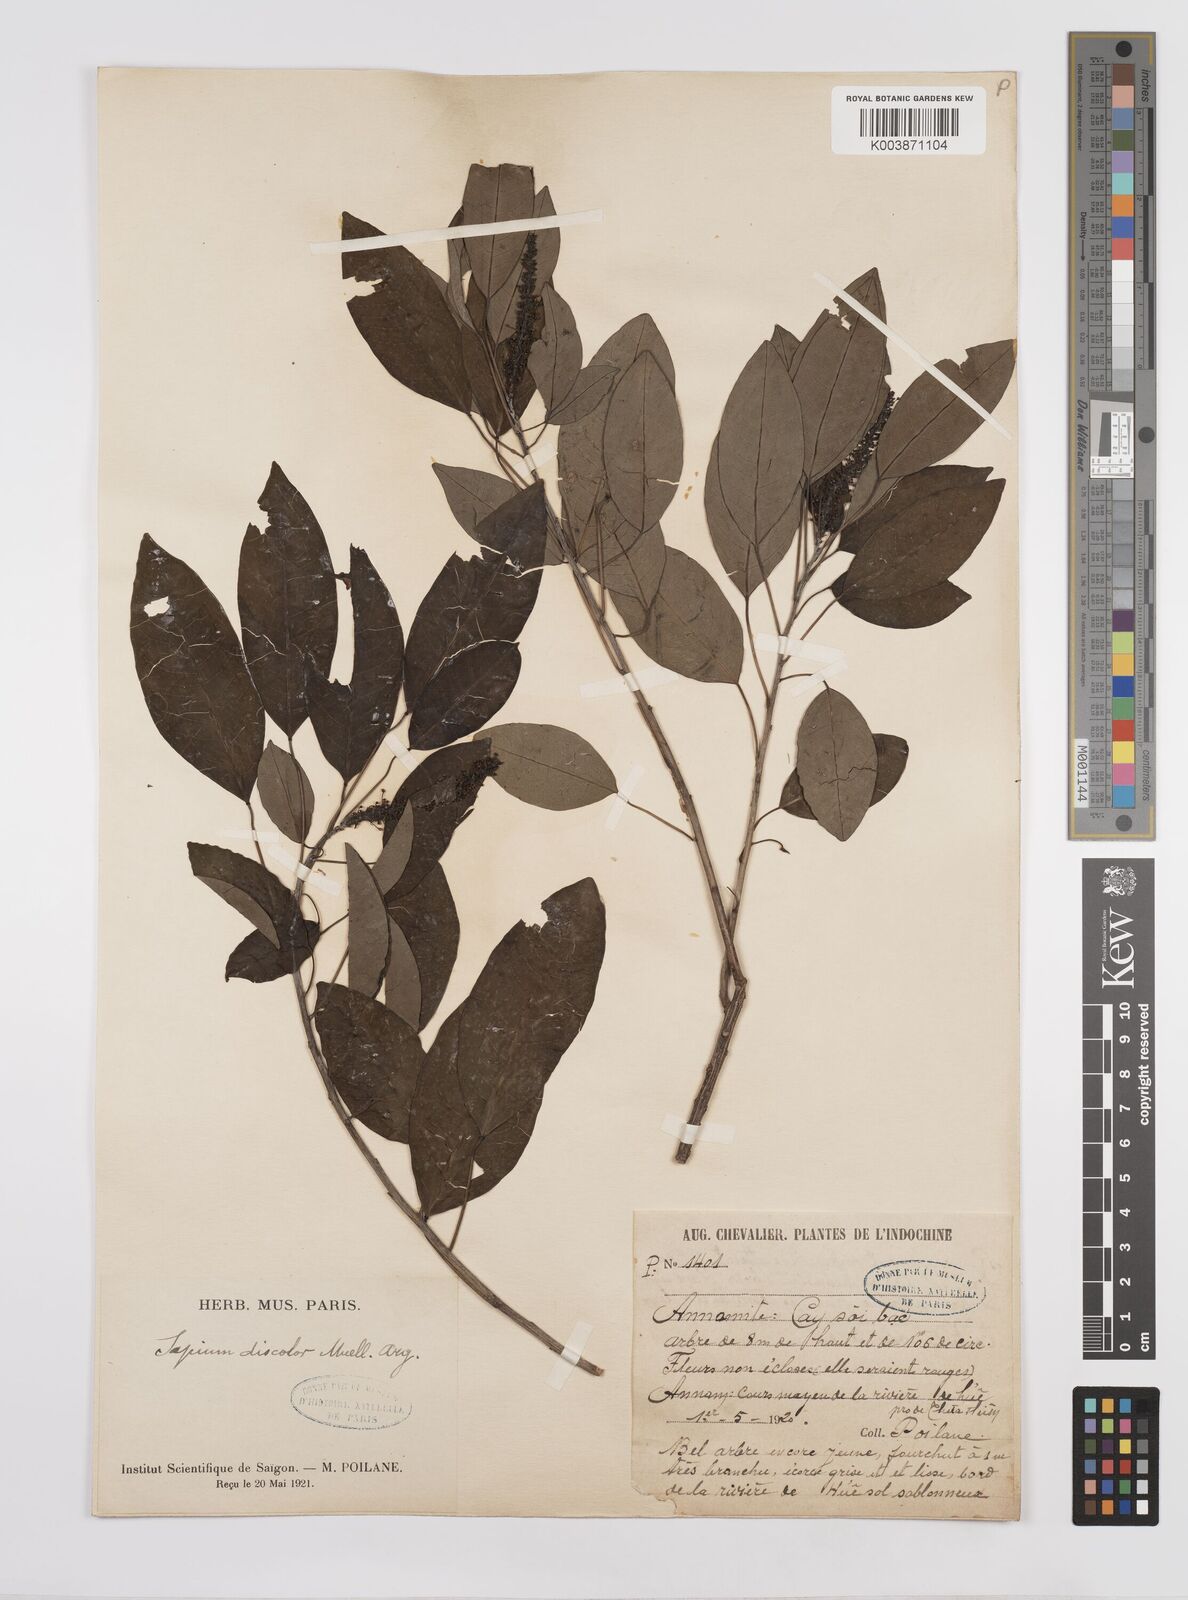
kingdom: Plantae
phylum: Tracheophyta
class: Magnoliopsida
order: Malpighiales
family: Euphorbiaceae
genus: Triadica
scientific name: Triadica cochinchinensis
